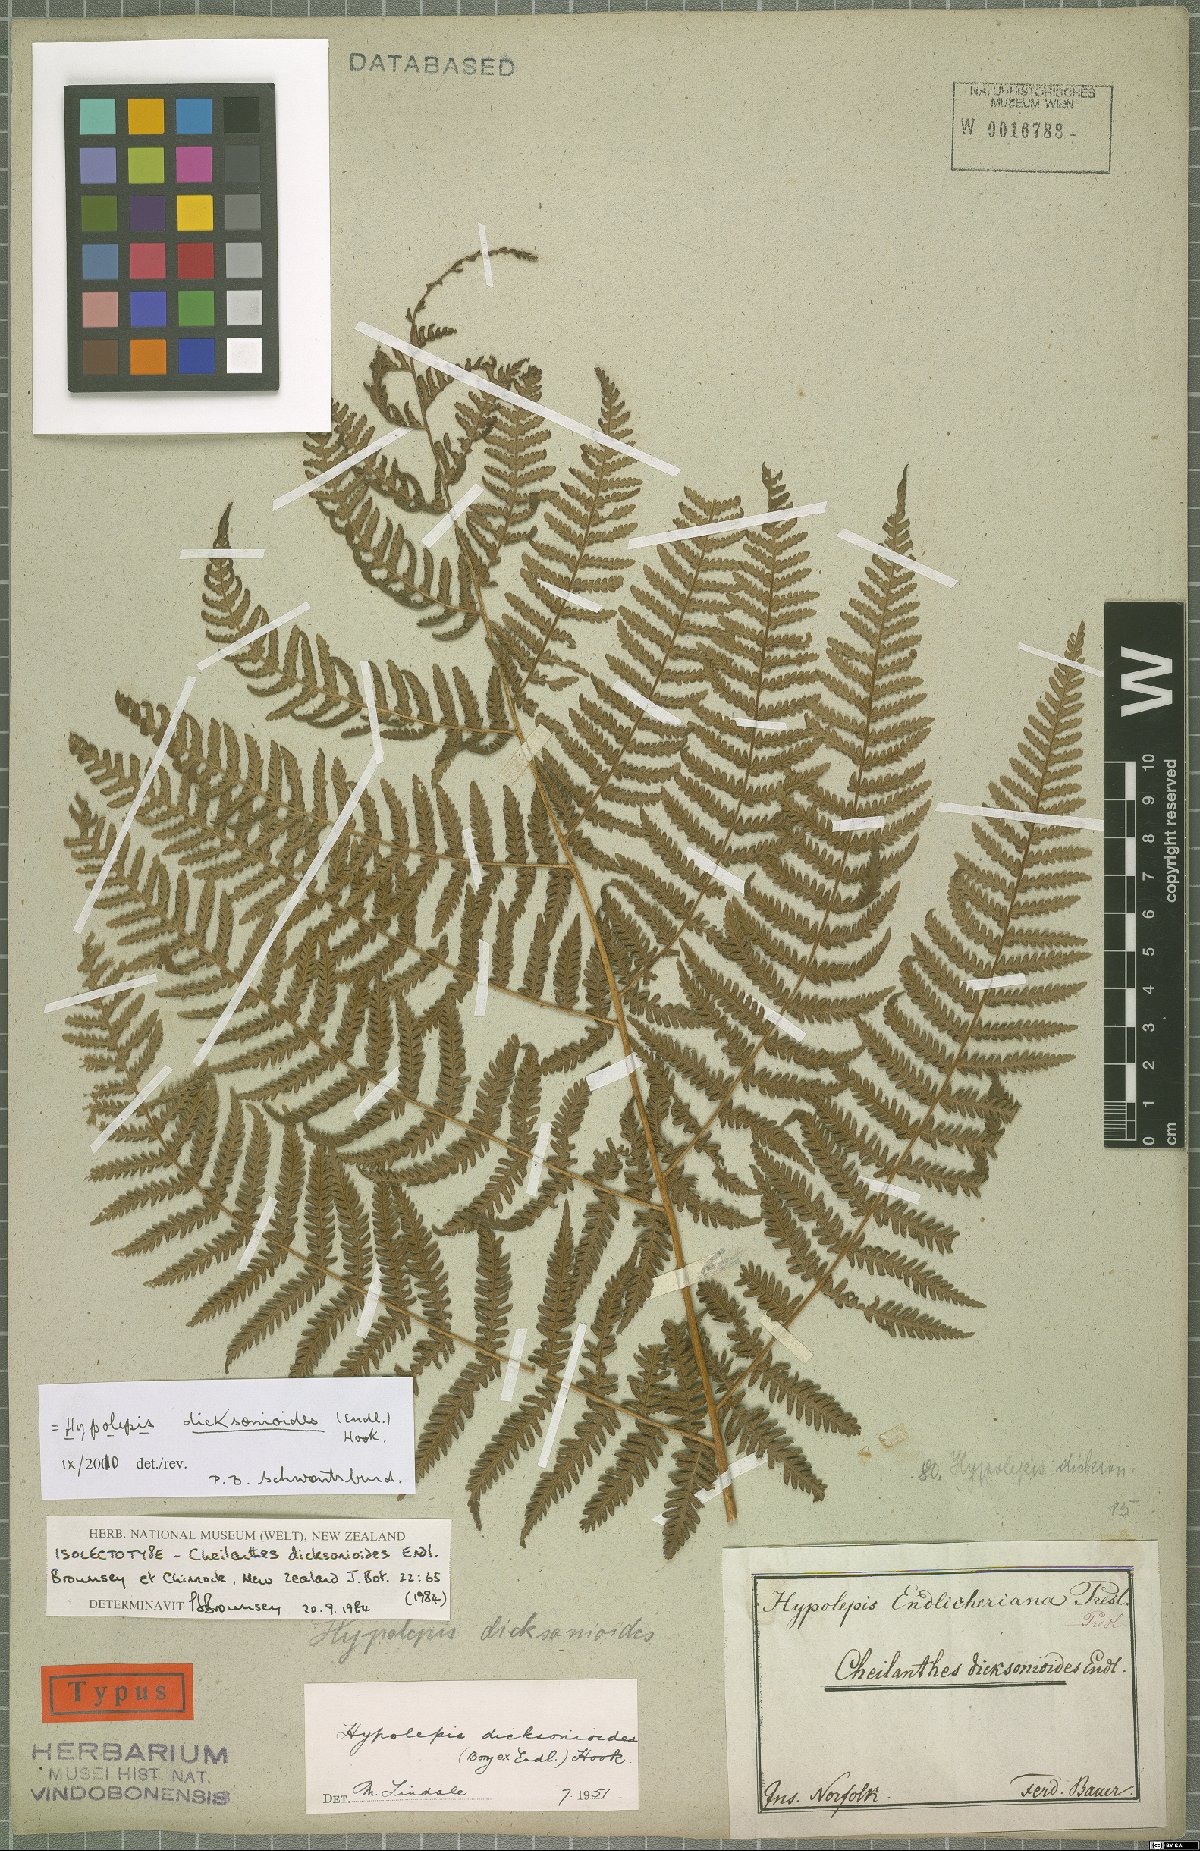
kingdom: Plantae
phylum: Tracheophyta
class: Polypodiopsida
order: Polypodiales
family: Dennstaedtiaceae
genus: Hypolepis
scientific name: Hypolepis dicksonioides
